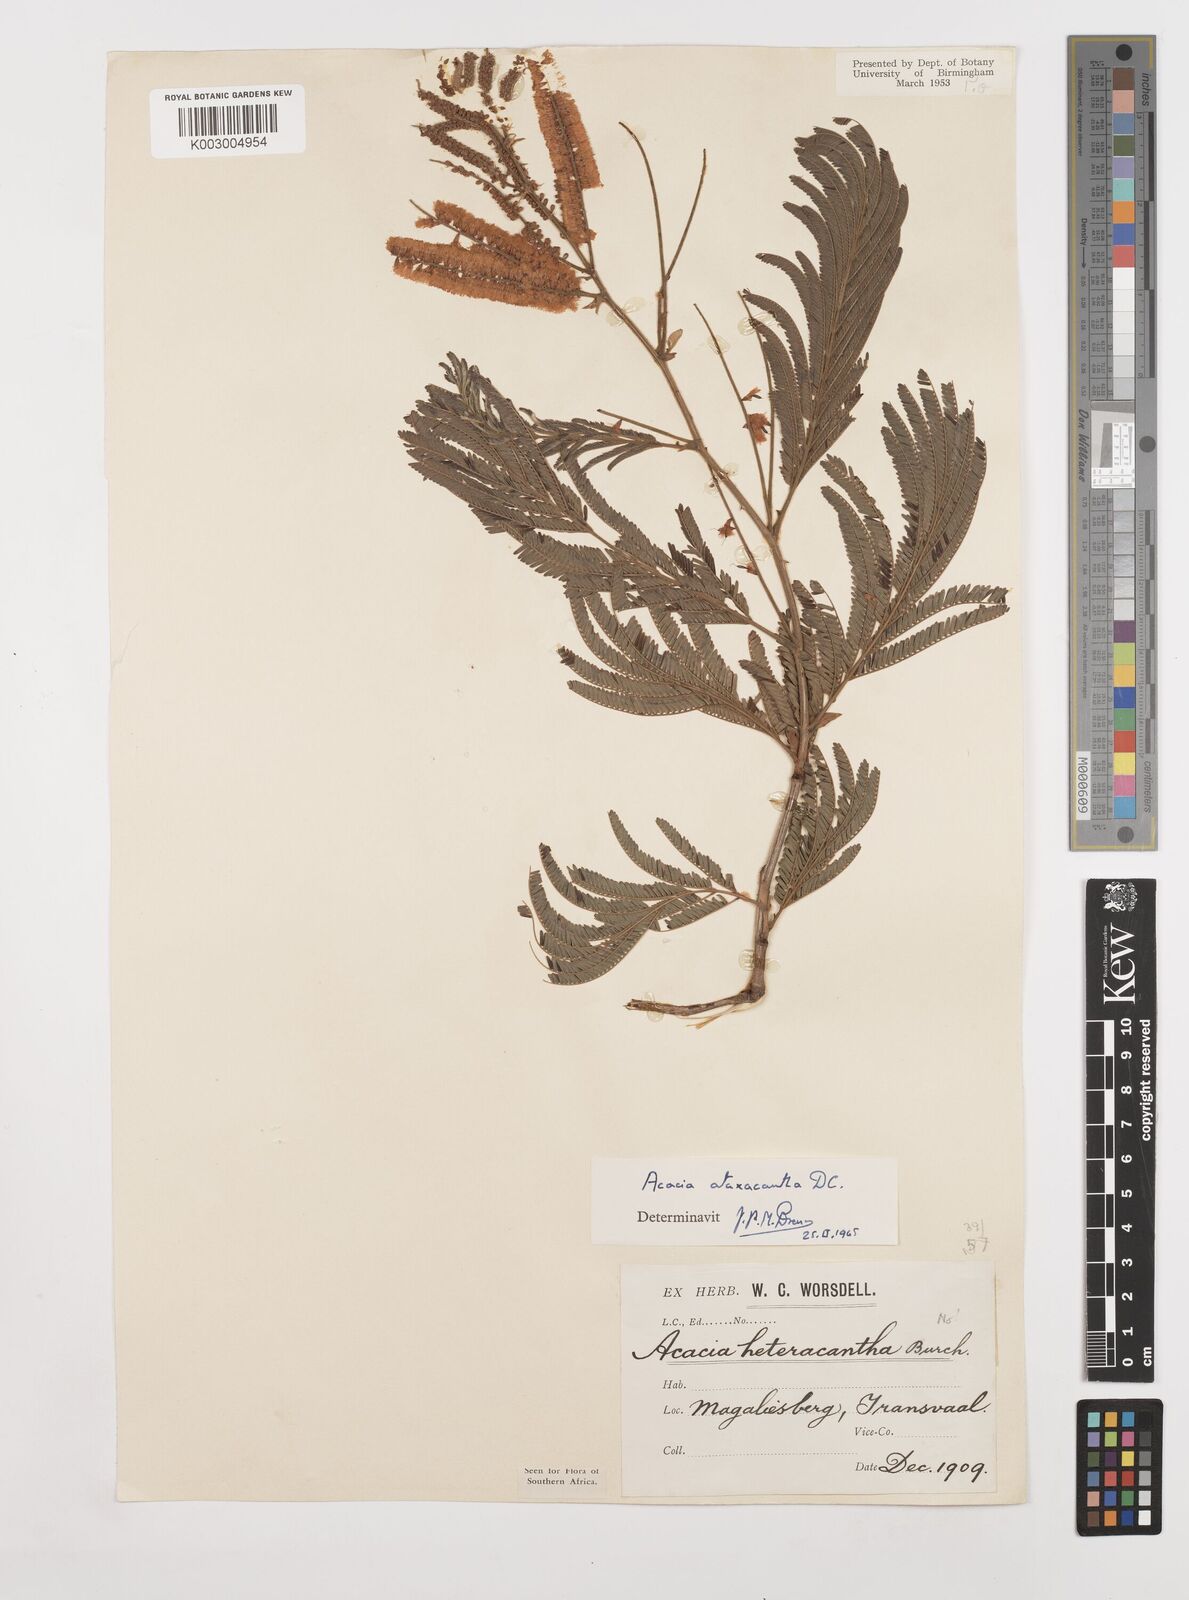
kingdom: Plantae
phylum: Tracheophyta
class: Magnoliopsida
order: Fabales
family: Fabaceae
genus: Senegalia
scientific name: Senegalia ataxacantha
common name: Flame acacia
